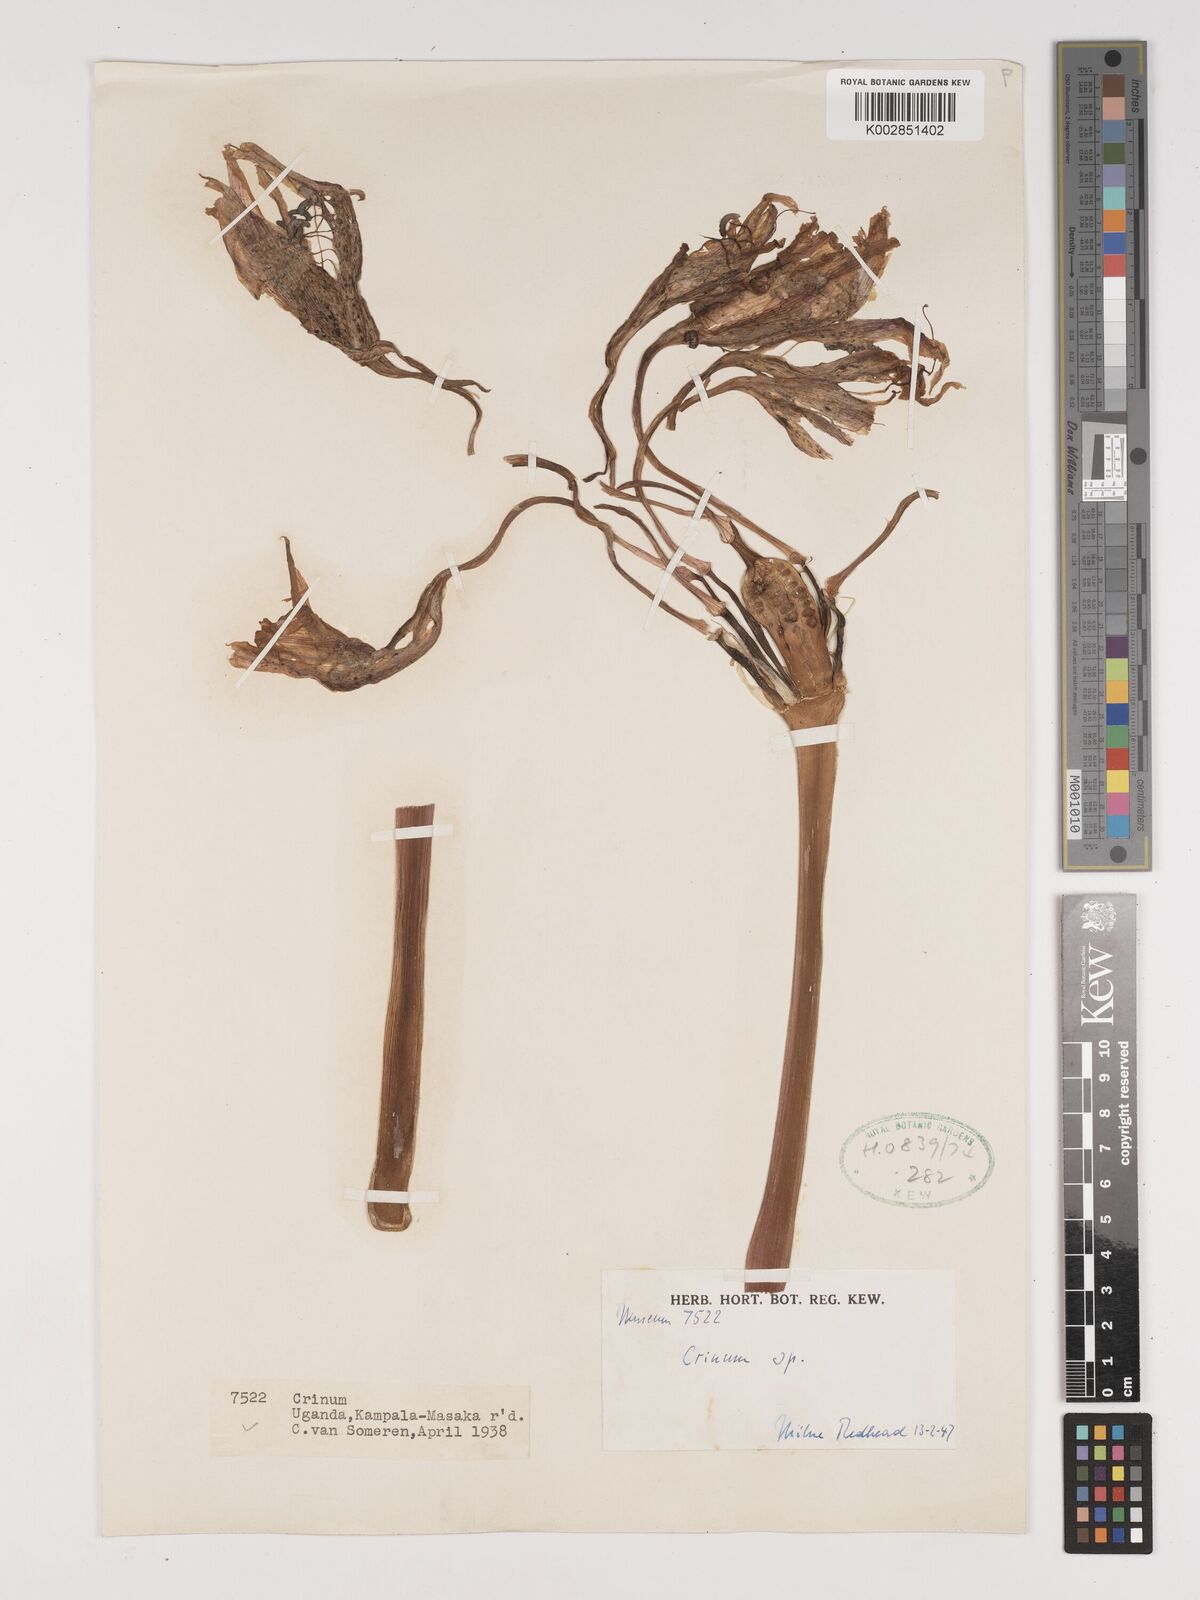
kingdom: Plantae
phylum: Tracheophyta
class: Liliopsida
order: Asparagales
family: Amaryllidaceae
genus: Crinum
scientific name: Crinum
